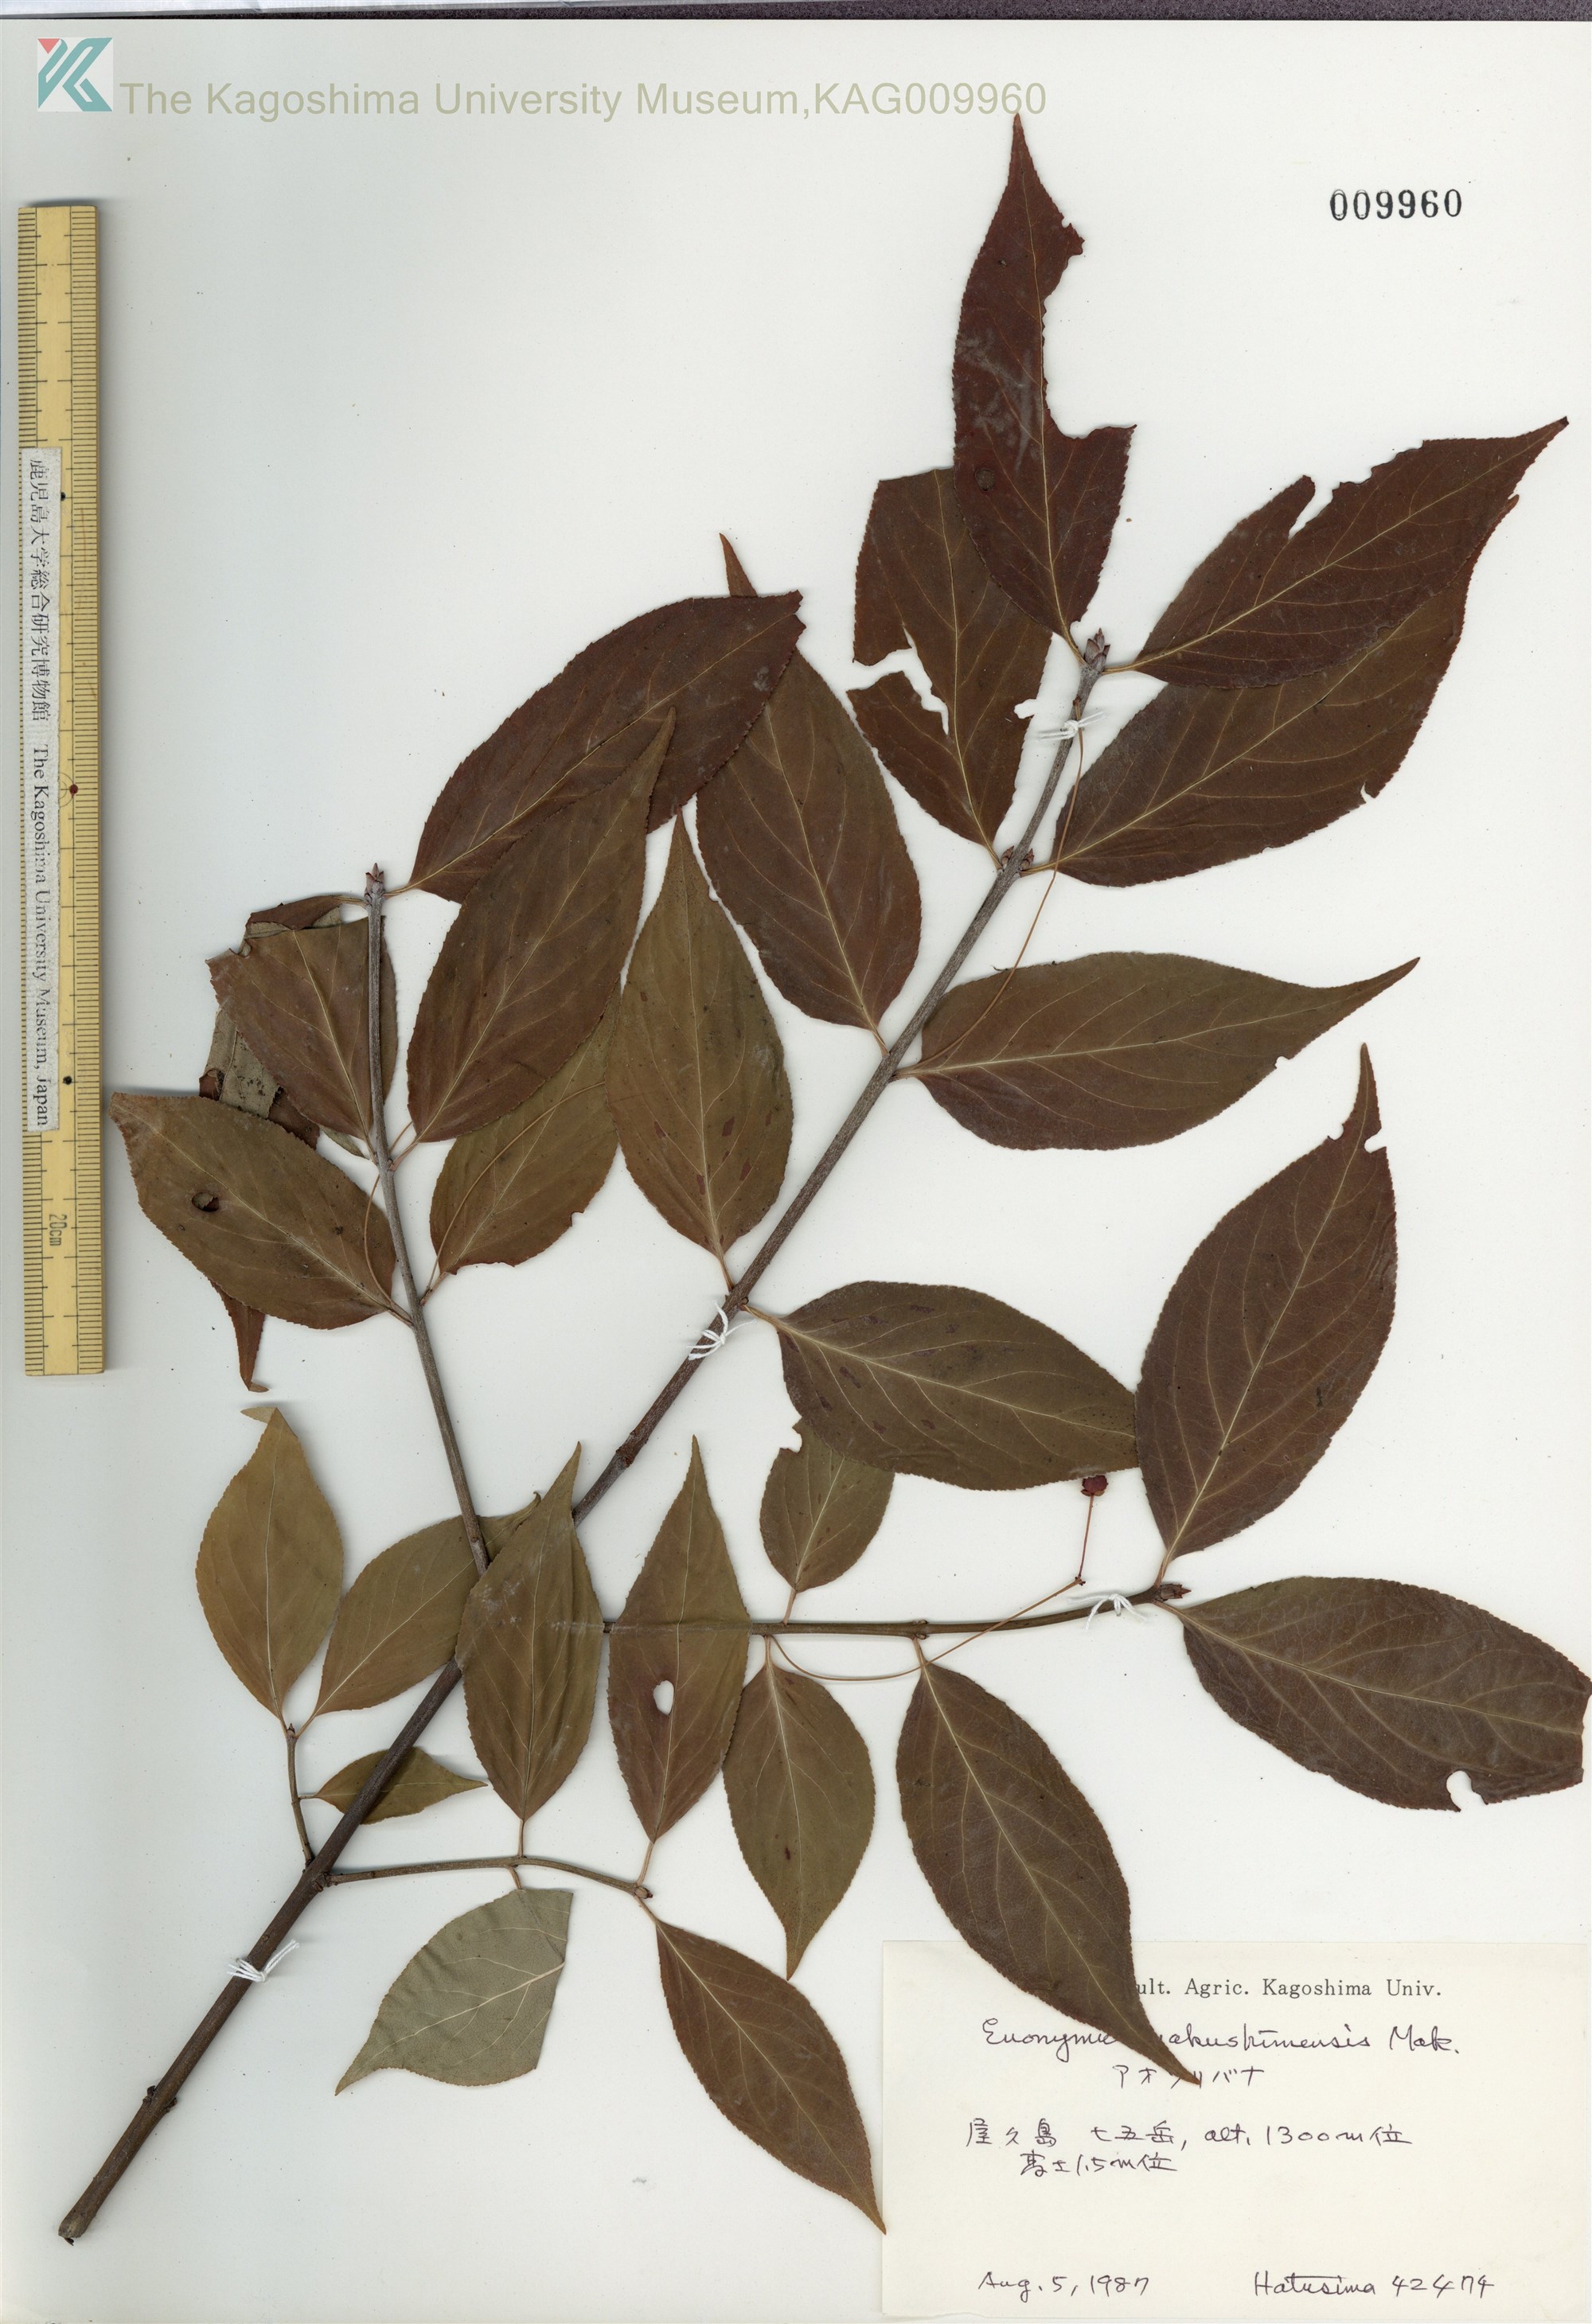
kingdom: Plantae
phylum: Tracheophyta
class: Magnoliopsida
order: Celastrales
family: Celastraceae
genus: Euonymus
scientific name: Euonymus yakushimensis
